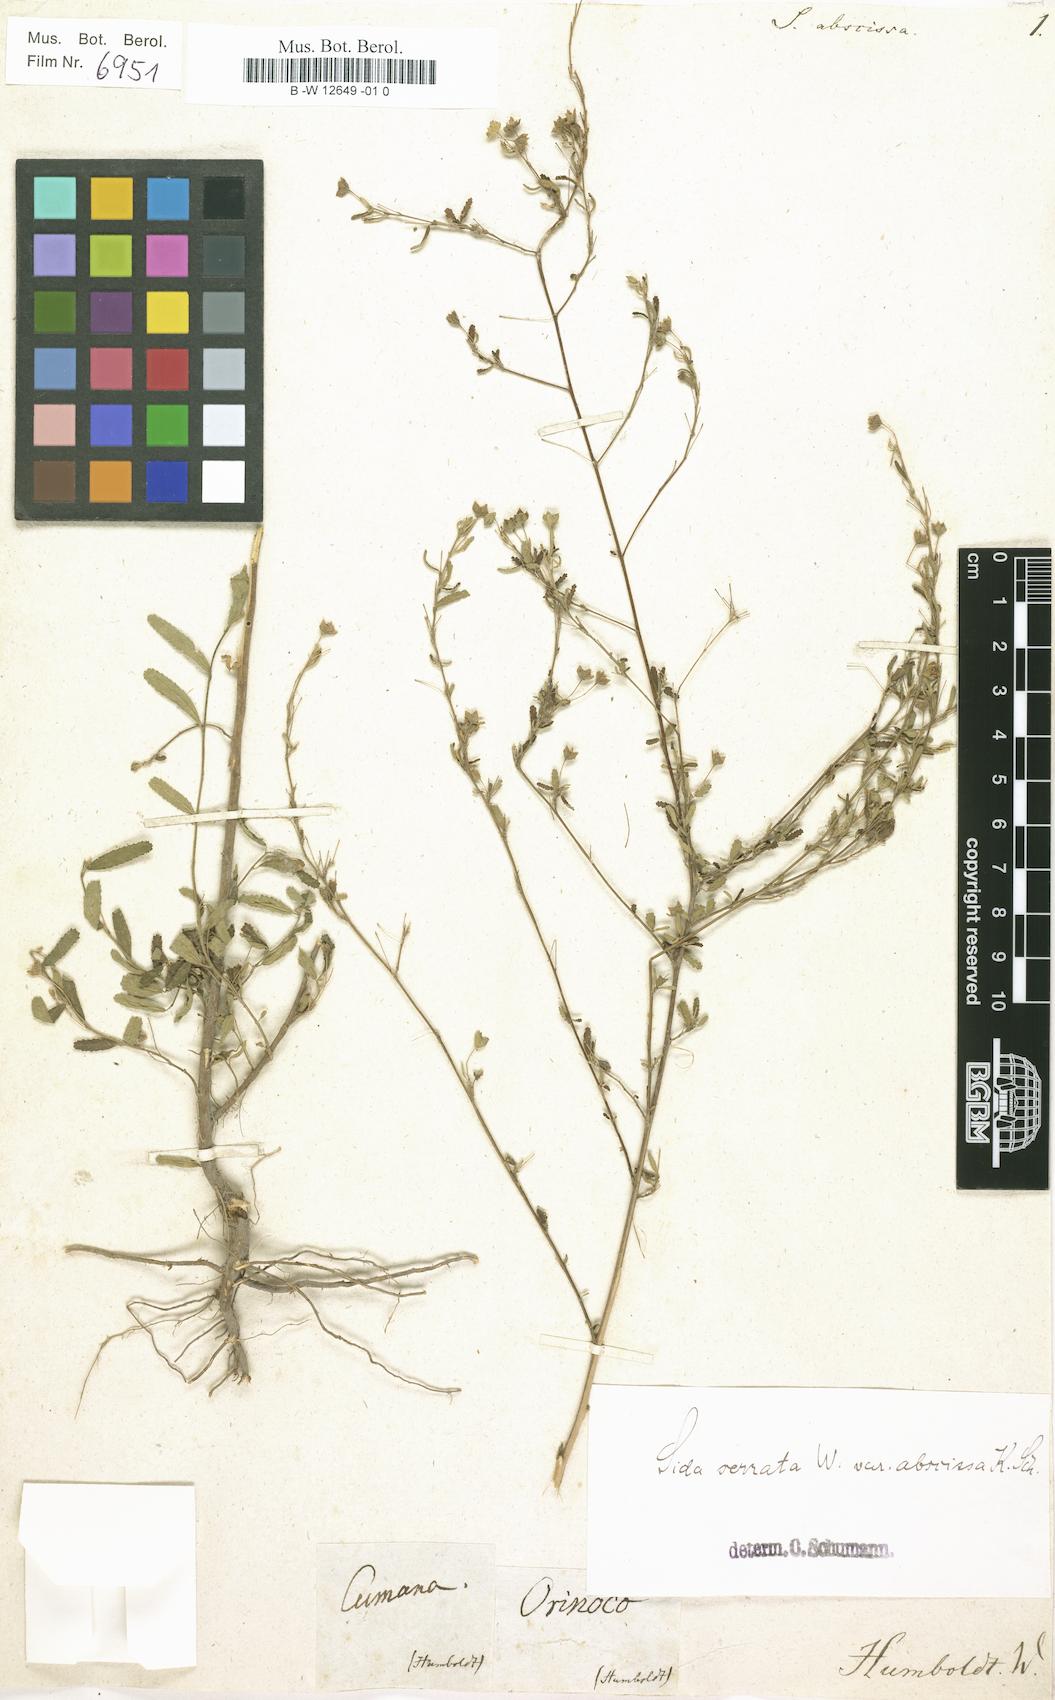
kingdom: Plantae
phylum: Tracheophyta
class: Magnoliopsida
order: Malvales
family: Malvaceae
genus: Sida
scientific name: Sida serrata
